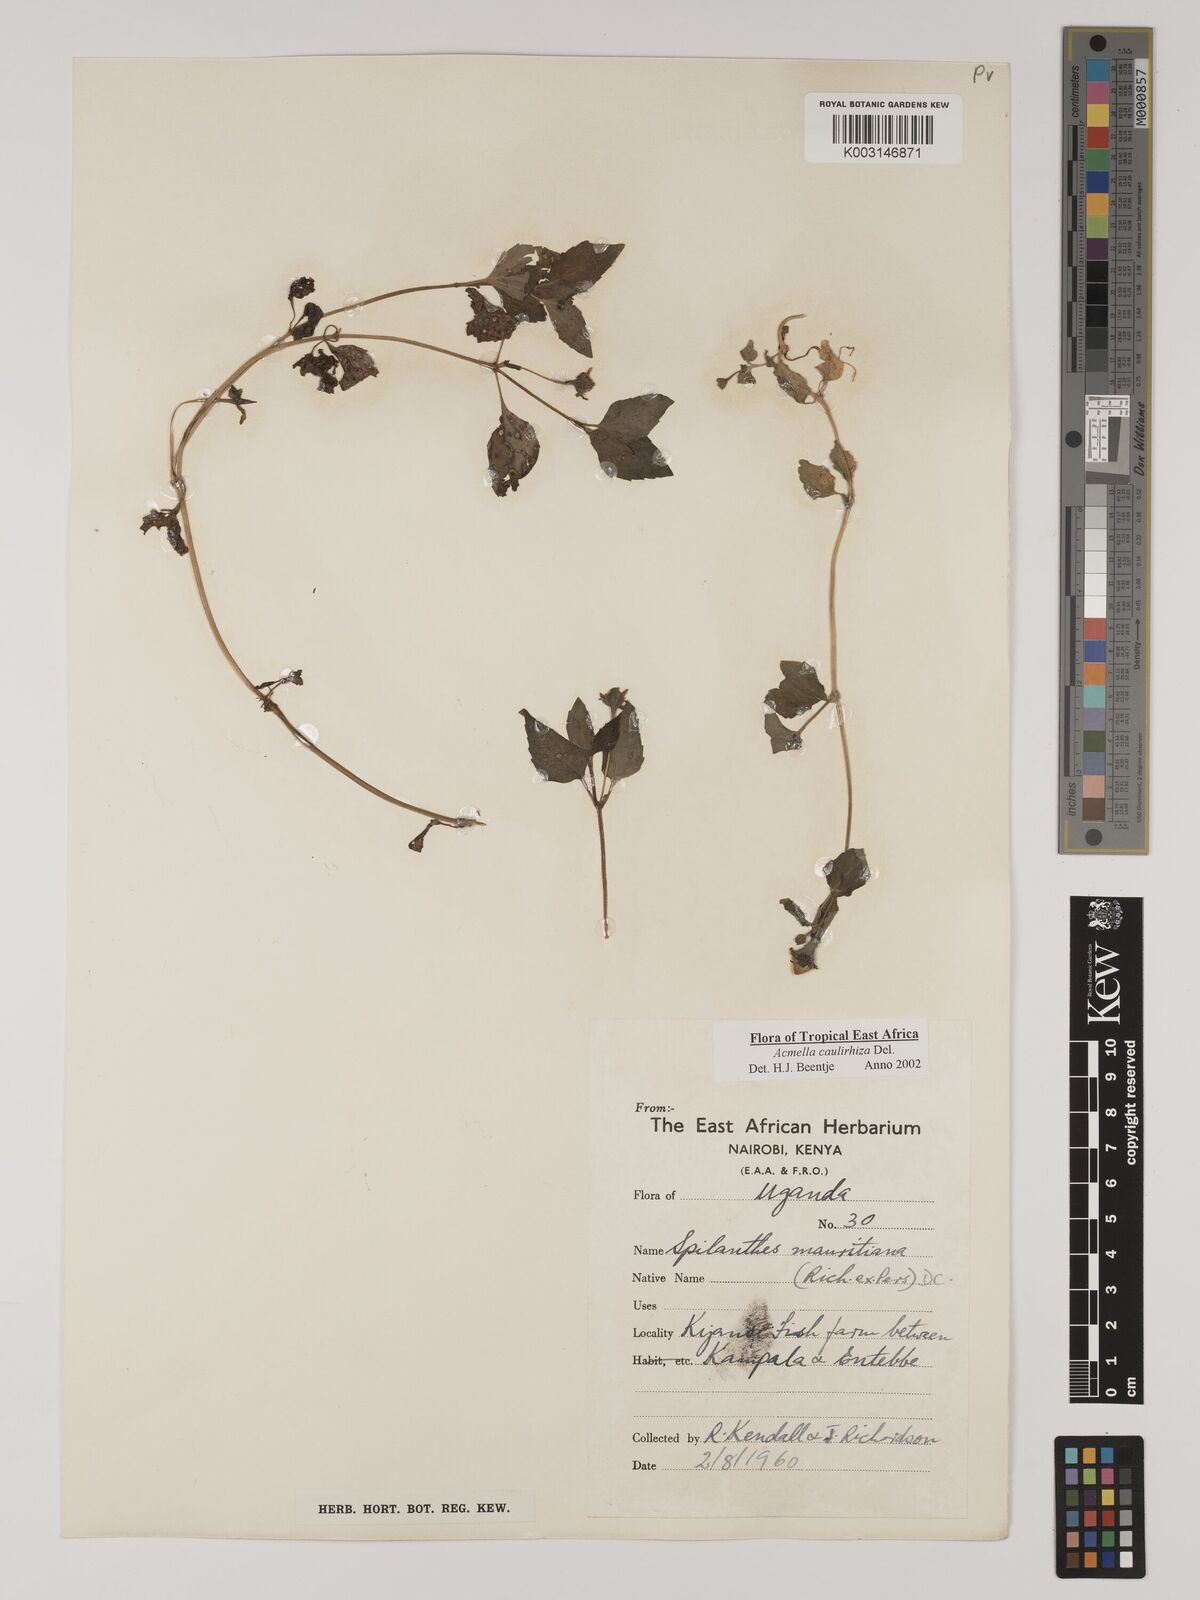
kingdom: Plantae
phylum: Tracheophyta
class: Magnoliopsida
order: Asterales
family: Asteraceae
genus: Acmella
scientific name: Acmella caulirhiza
